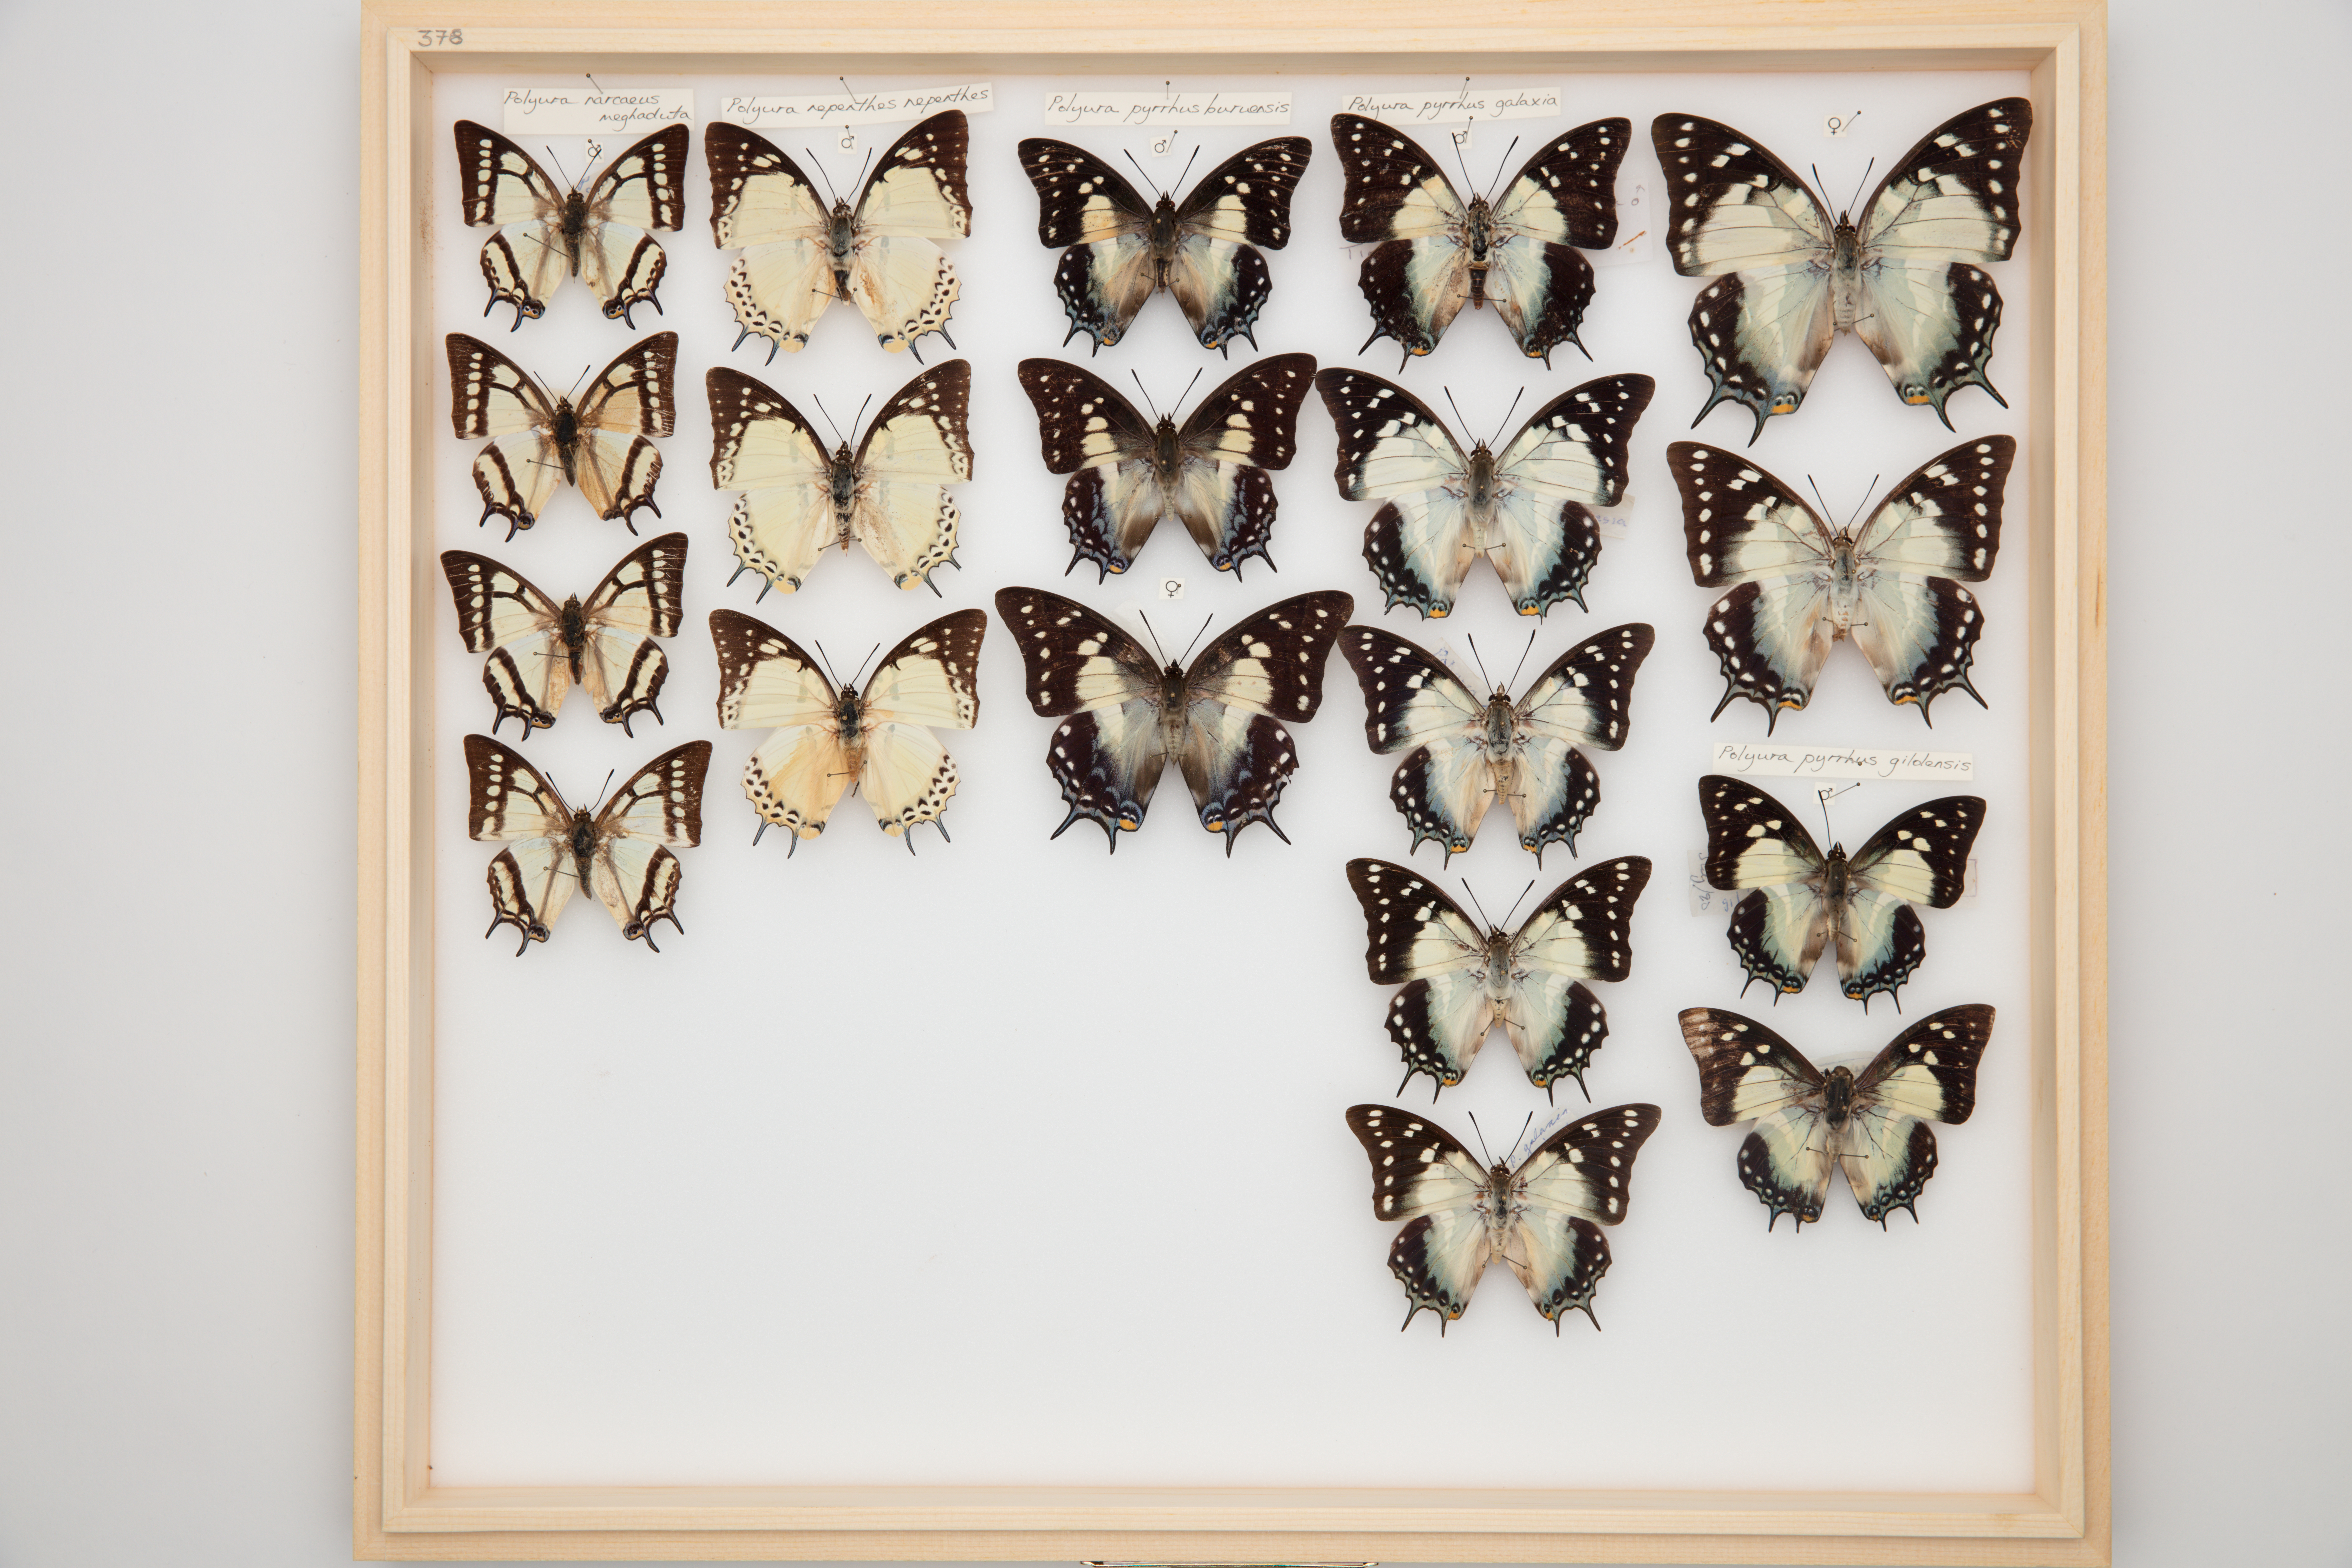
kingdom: Animalia
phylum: Arthropoda
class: Insecta
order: Lepidoptera
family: Nymphalidae
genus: Polyura
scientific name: Polyura pyrrhus
